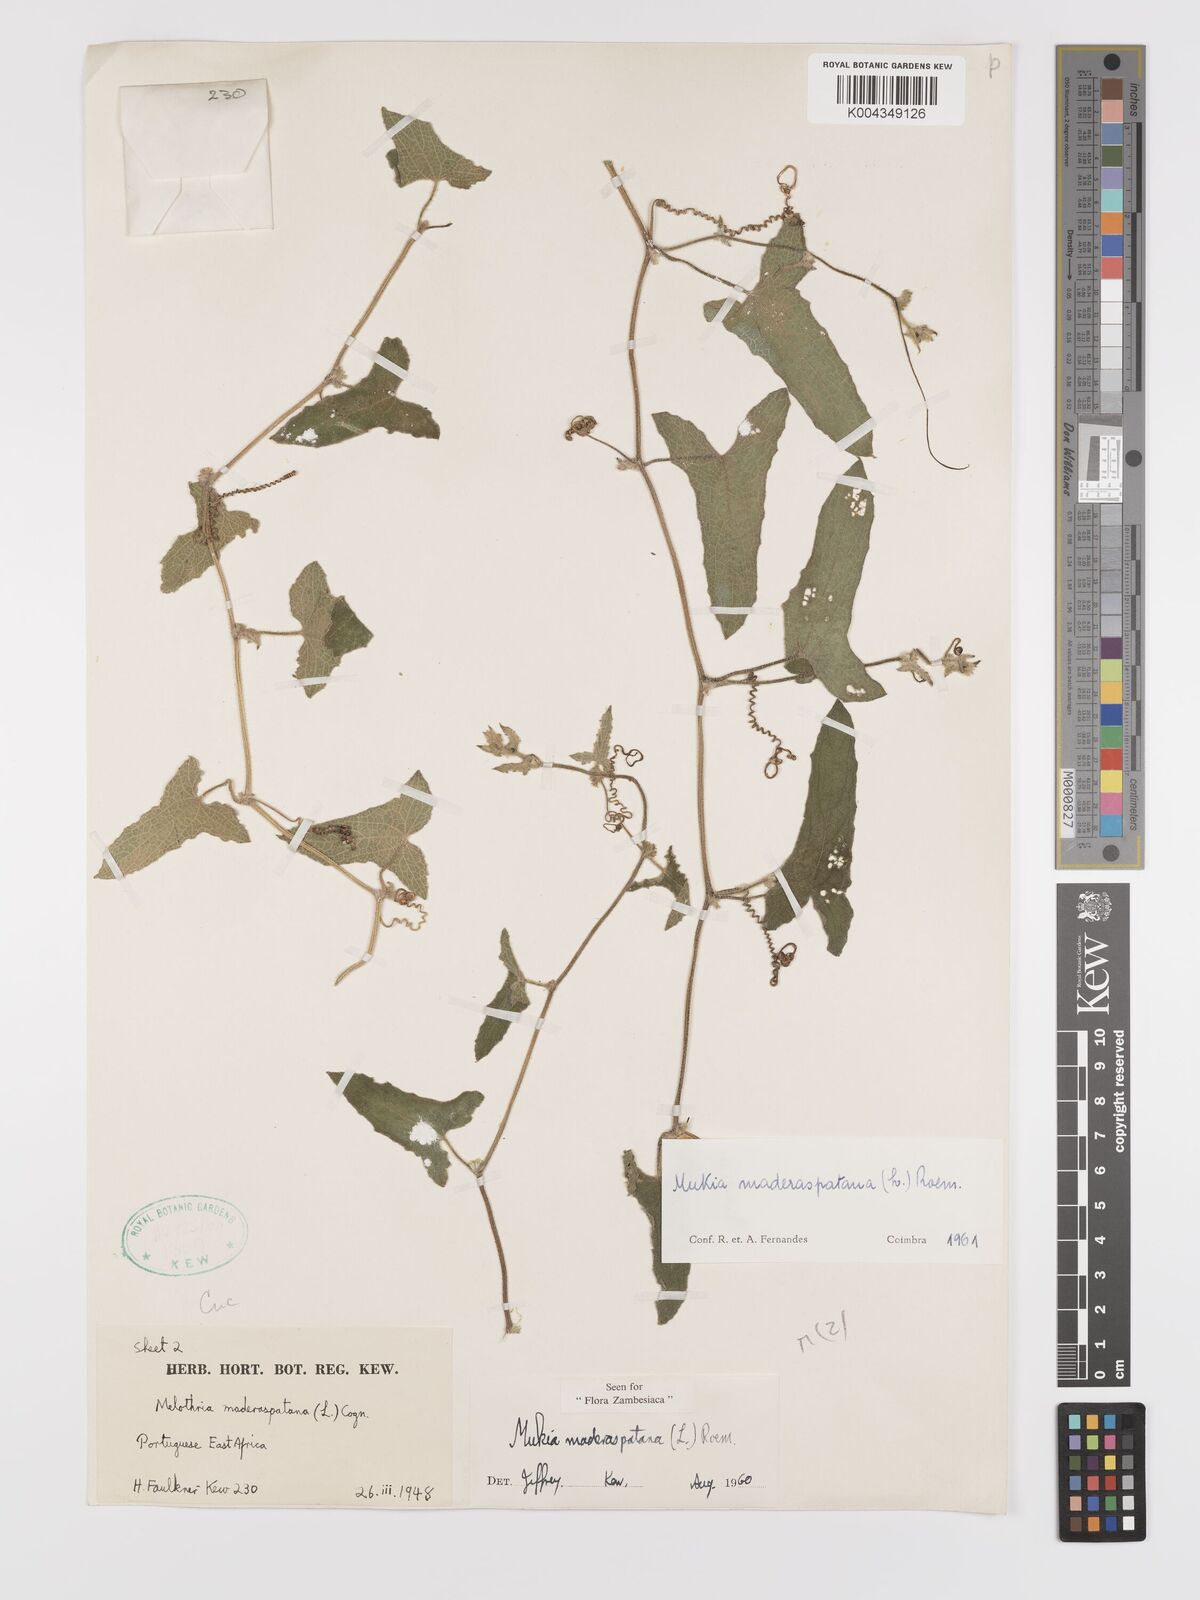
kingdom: Plantae
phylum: Tracheophyta
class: Magnoliopsida
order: Cucurbitales
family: Cucurbitaceae
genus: Cucumis
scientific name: Cucumis maderaspatanus
